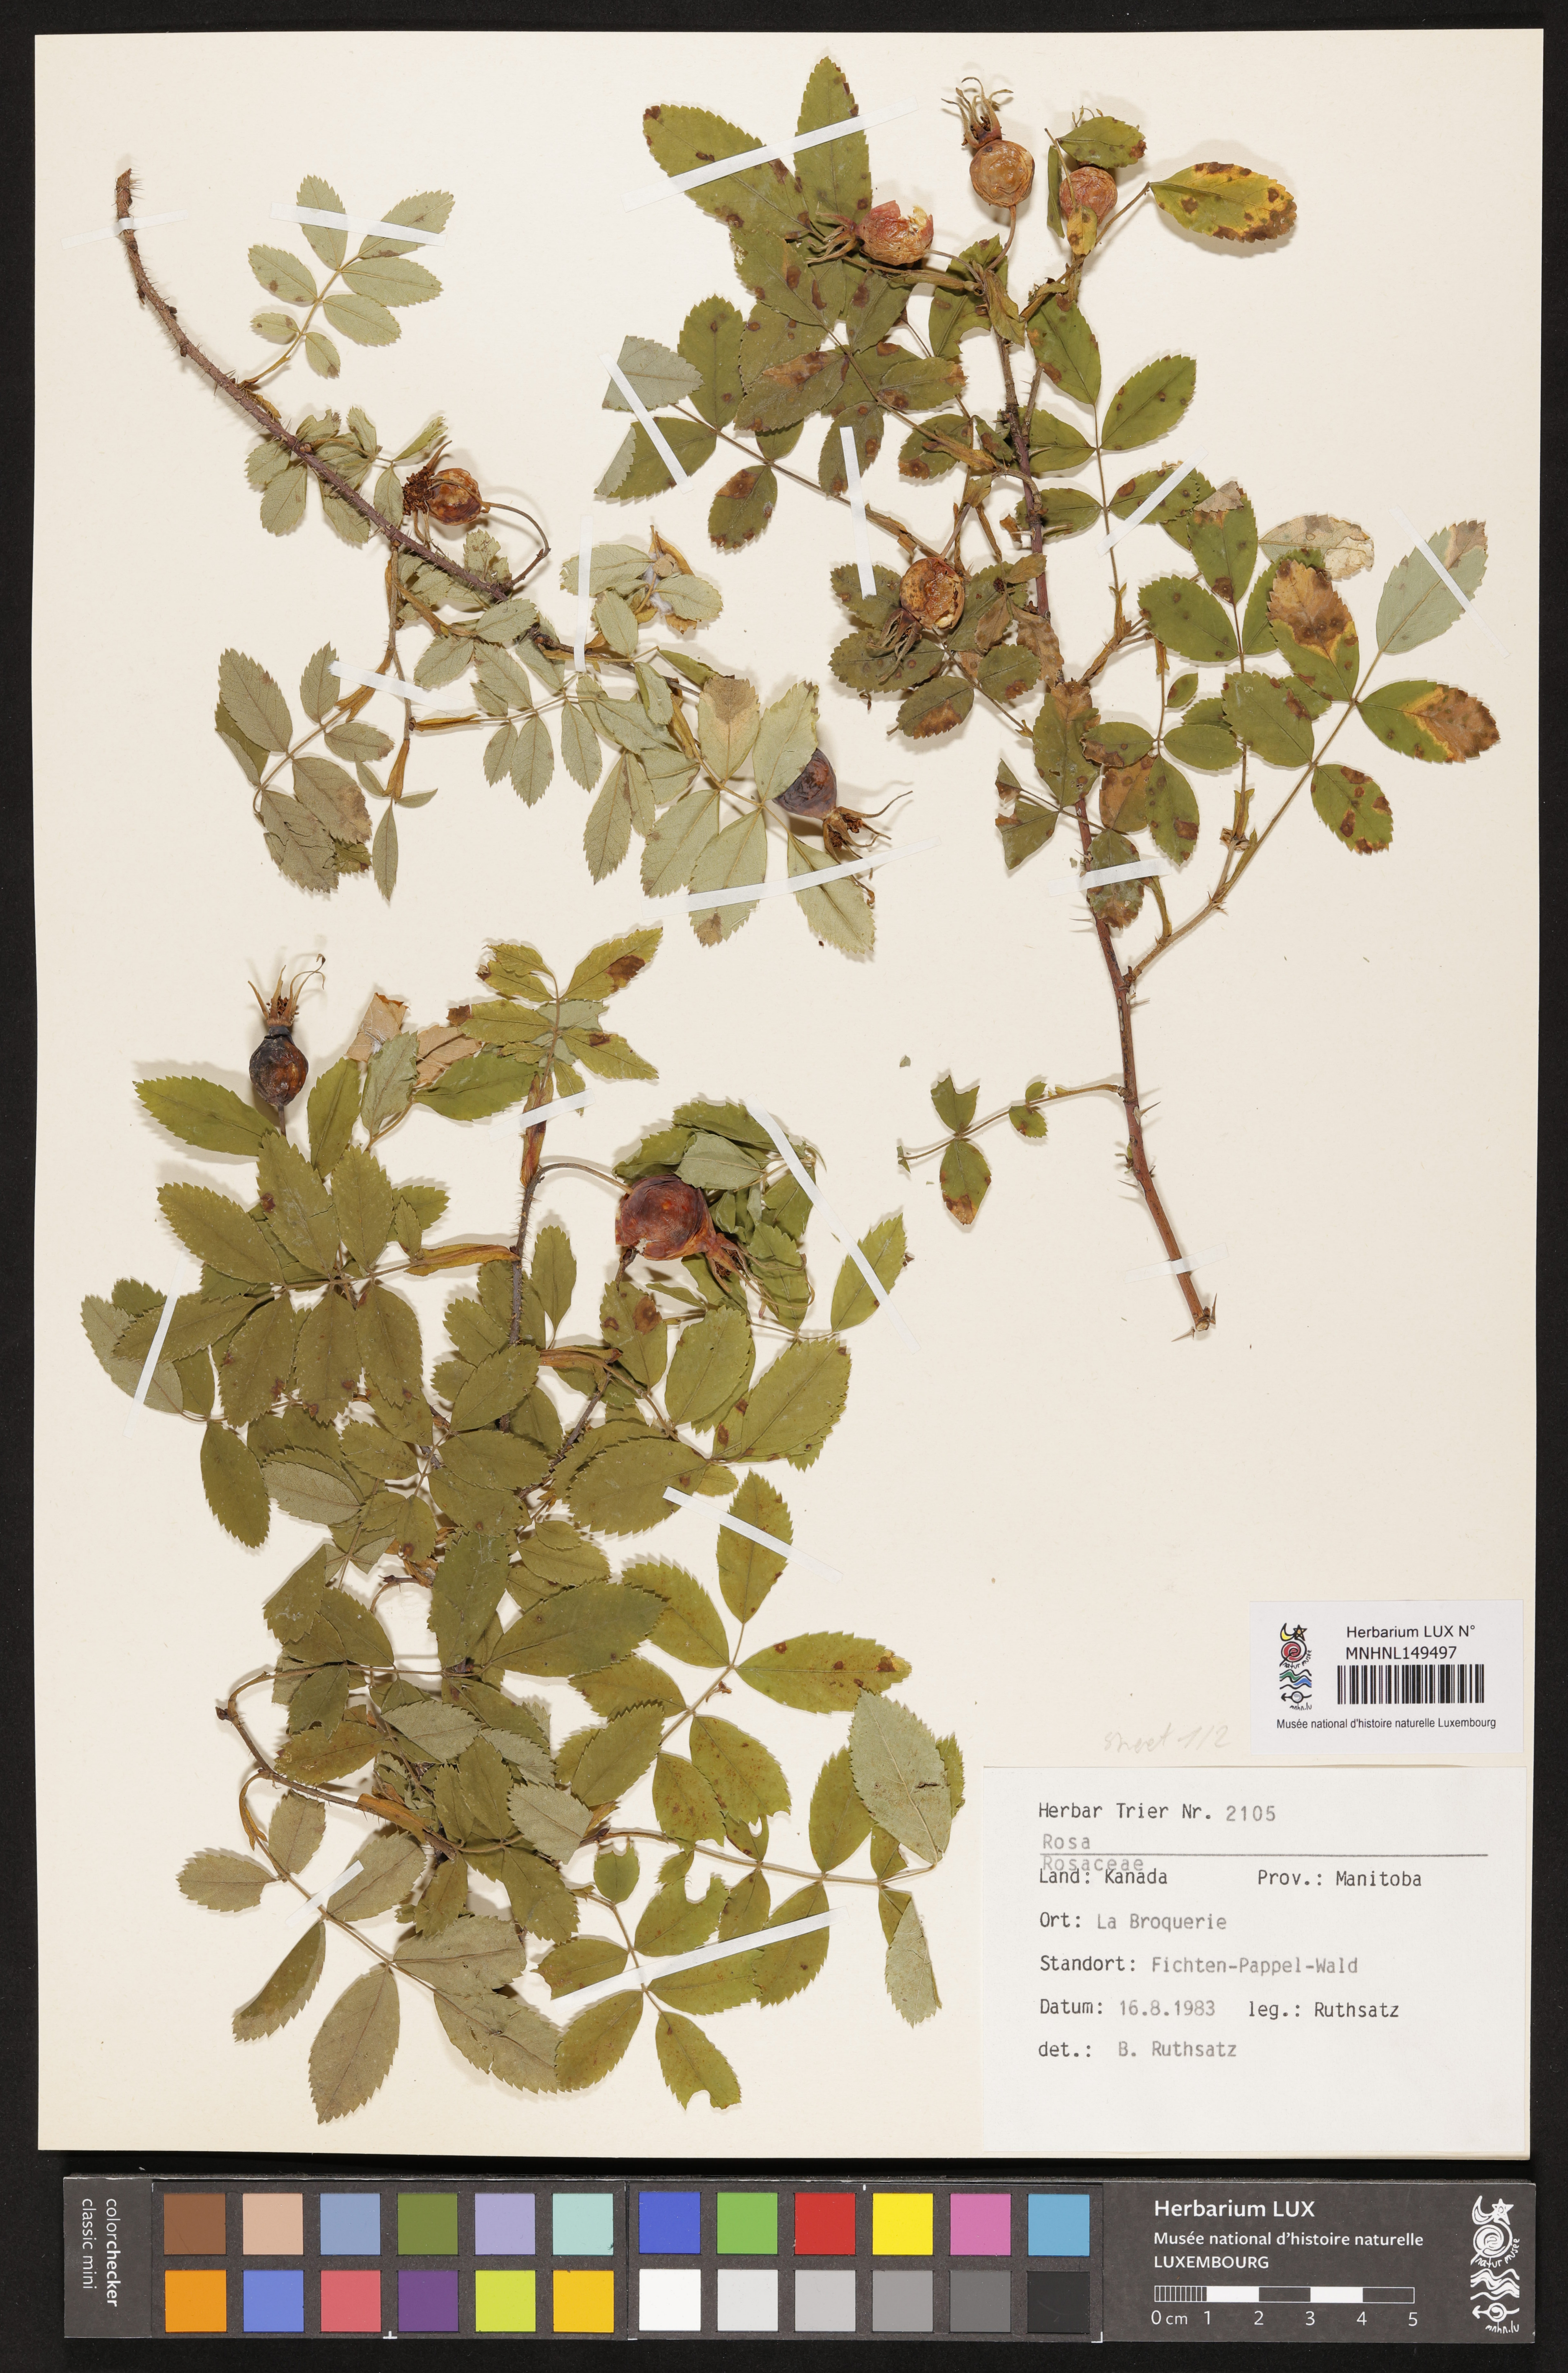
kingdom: Plantae
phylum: Tracheophyta
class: Magnoliopsida
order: Rosales
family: Rosaceae
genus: Rosa
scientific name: Rosa
